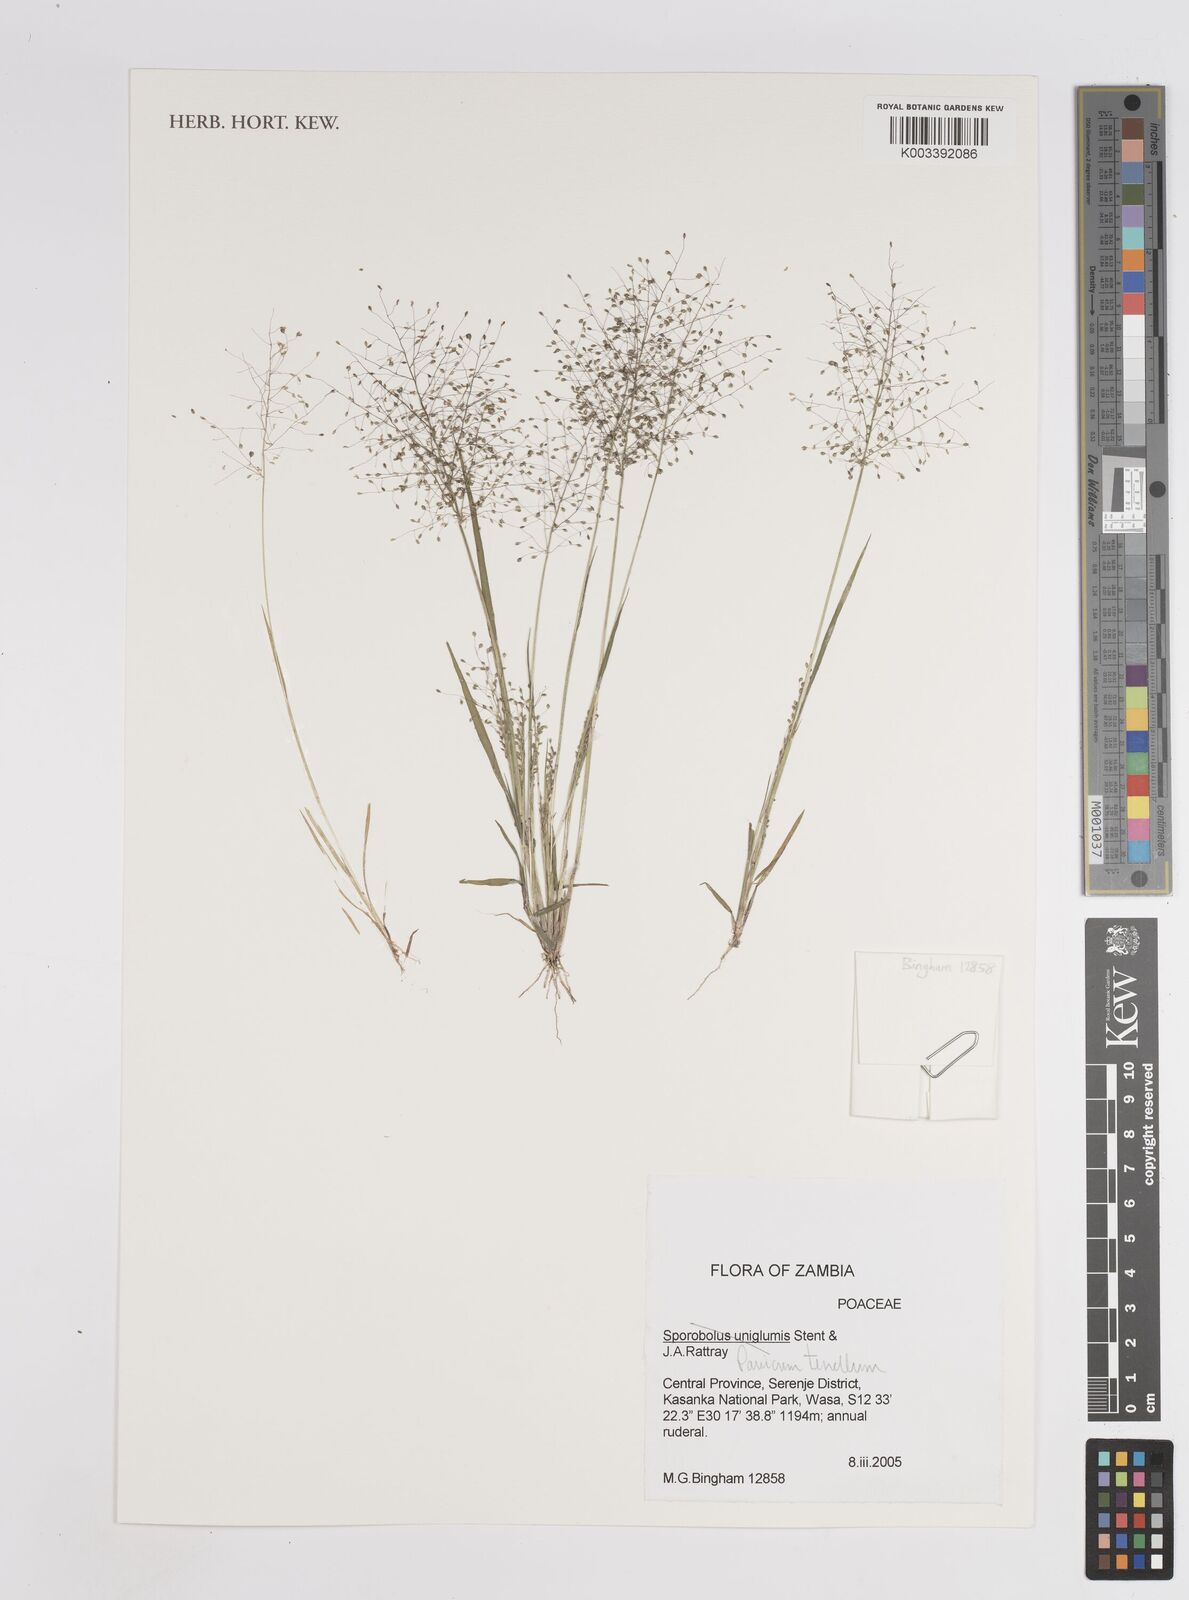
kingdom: Plantae
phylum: Tracheophyta
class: Liliopsida
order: Poales
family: Poaceae
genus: Trichanthecium
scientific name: Trichanthecium tenellum
